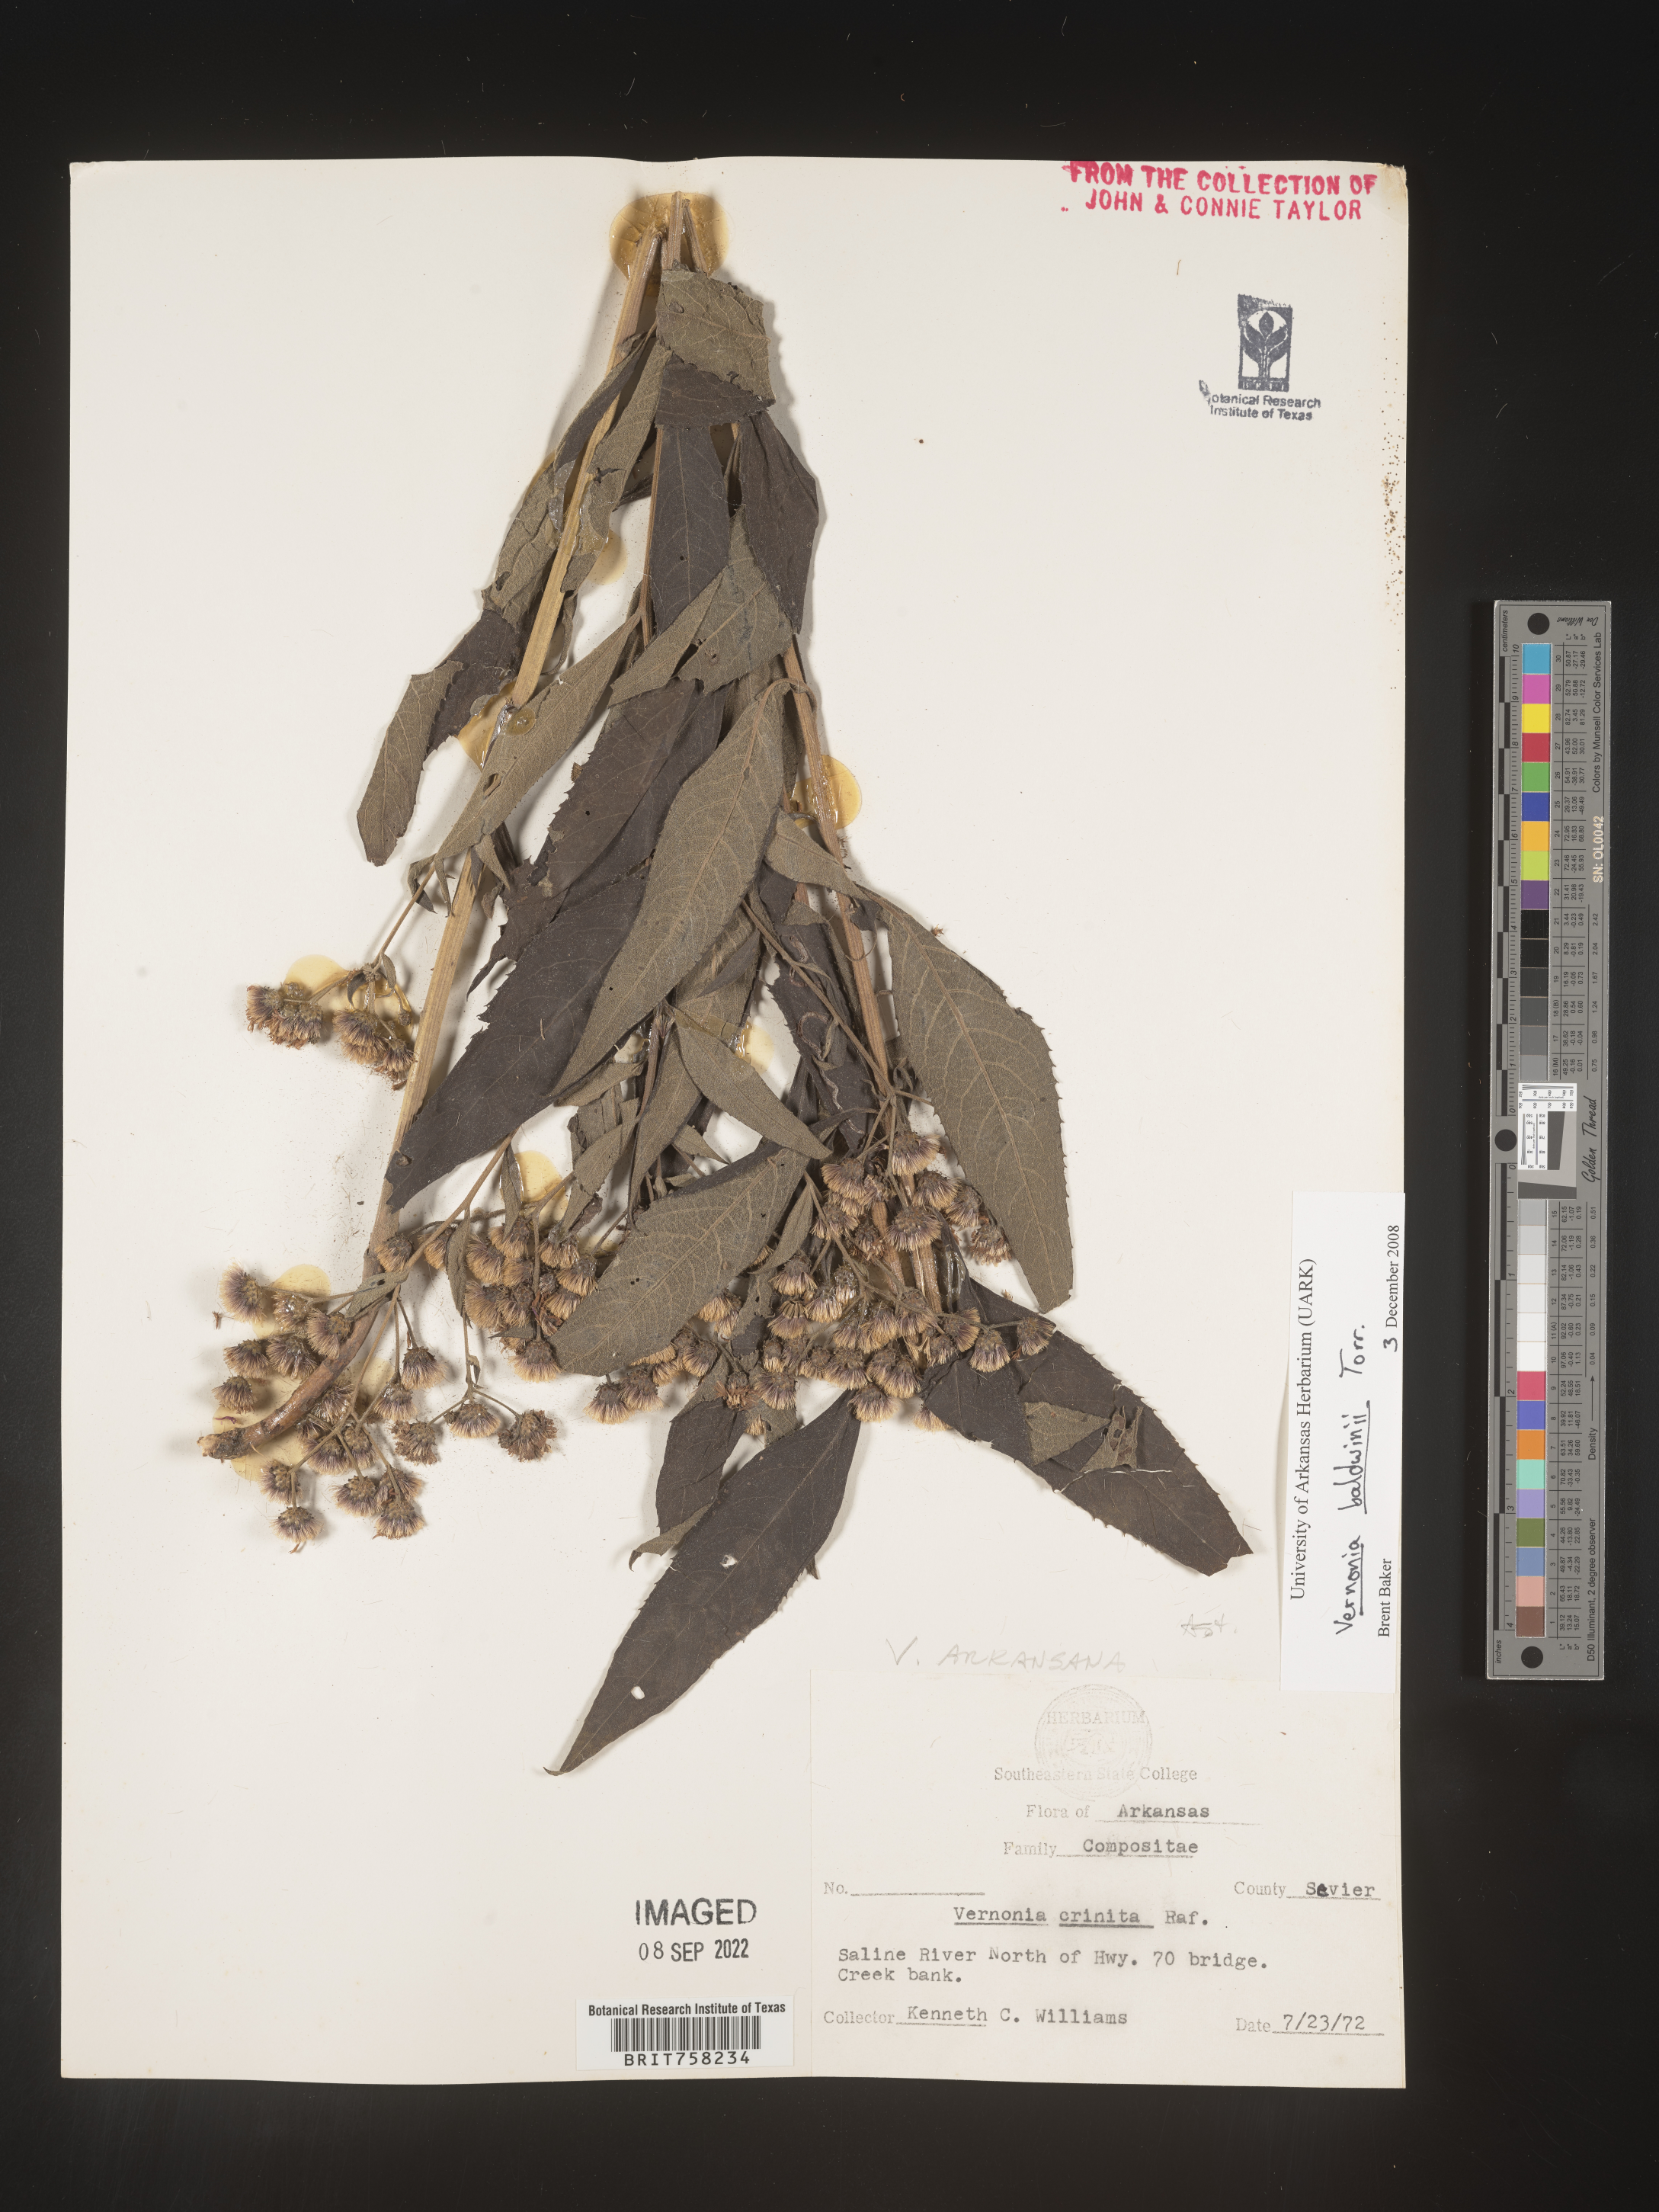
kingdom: Plantae
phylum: Tracheophyta
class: Magnoliopsida
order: Asterales
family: Asteraceae
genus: Vernonia
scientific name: Vernonia baldwinii
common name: Western ironweed
